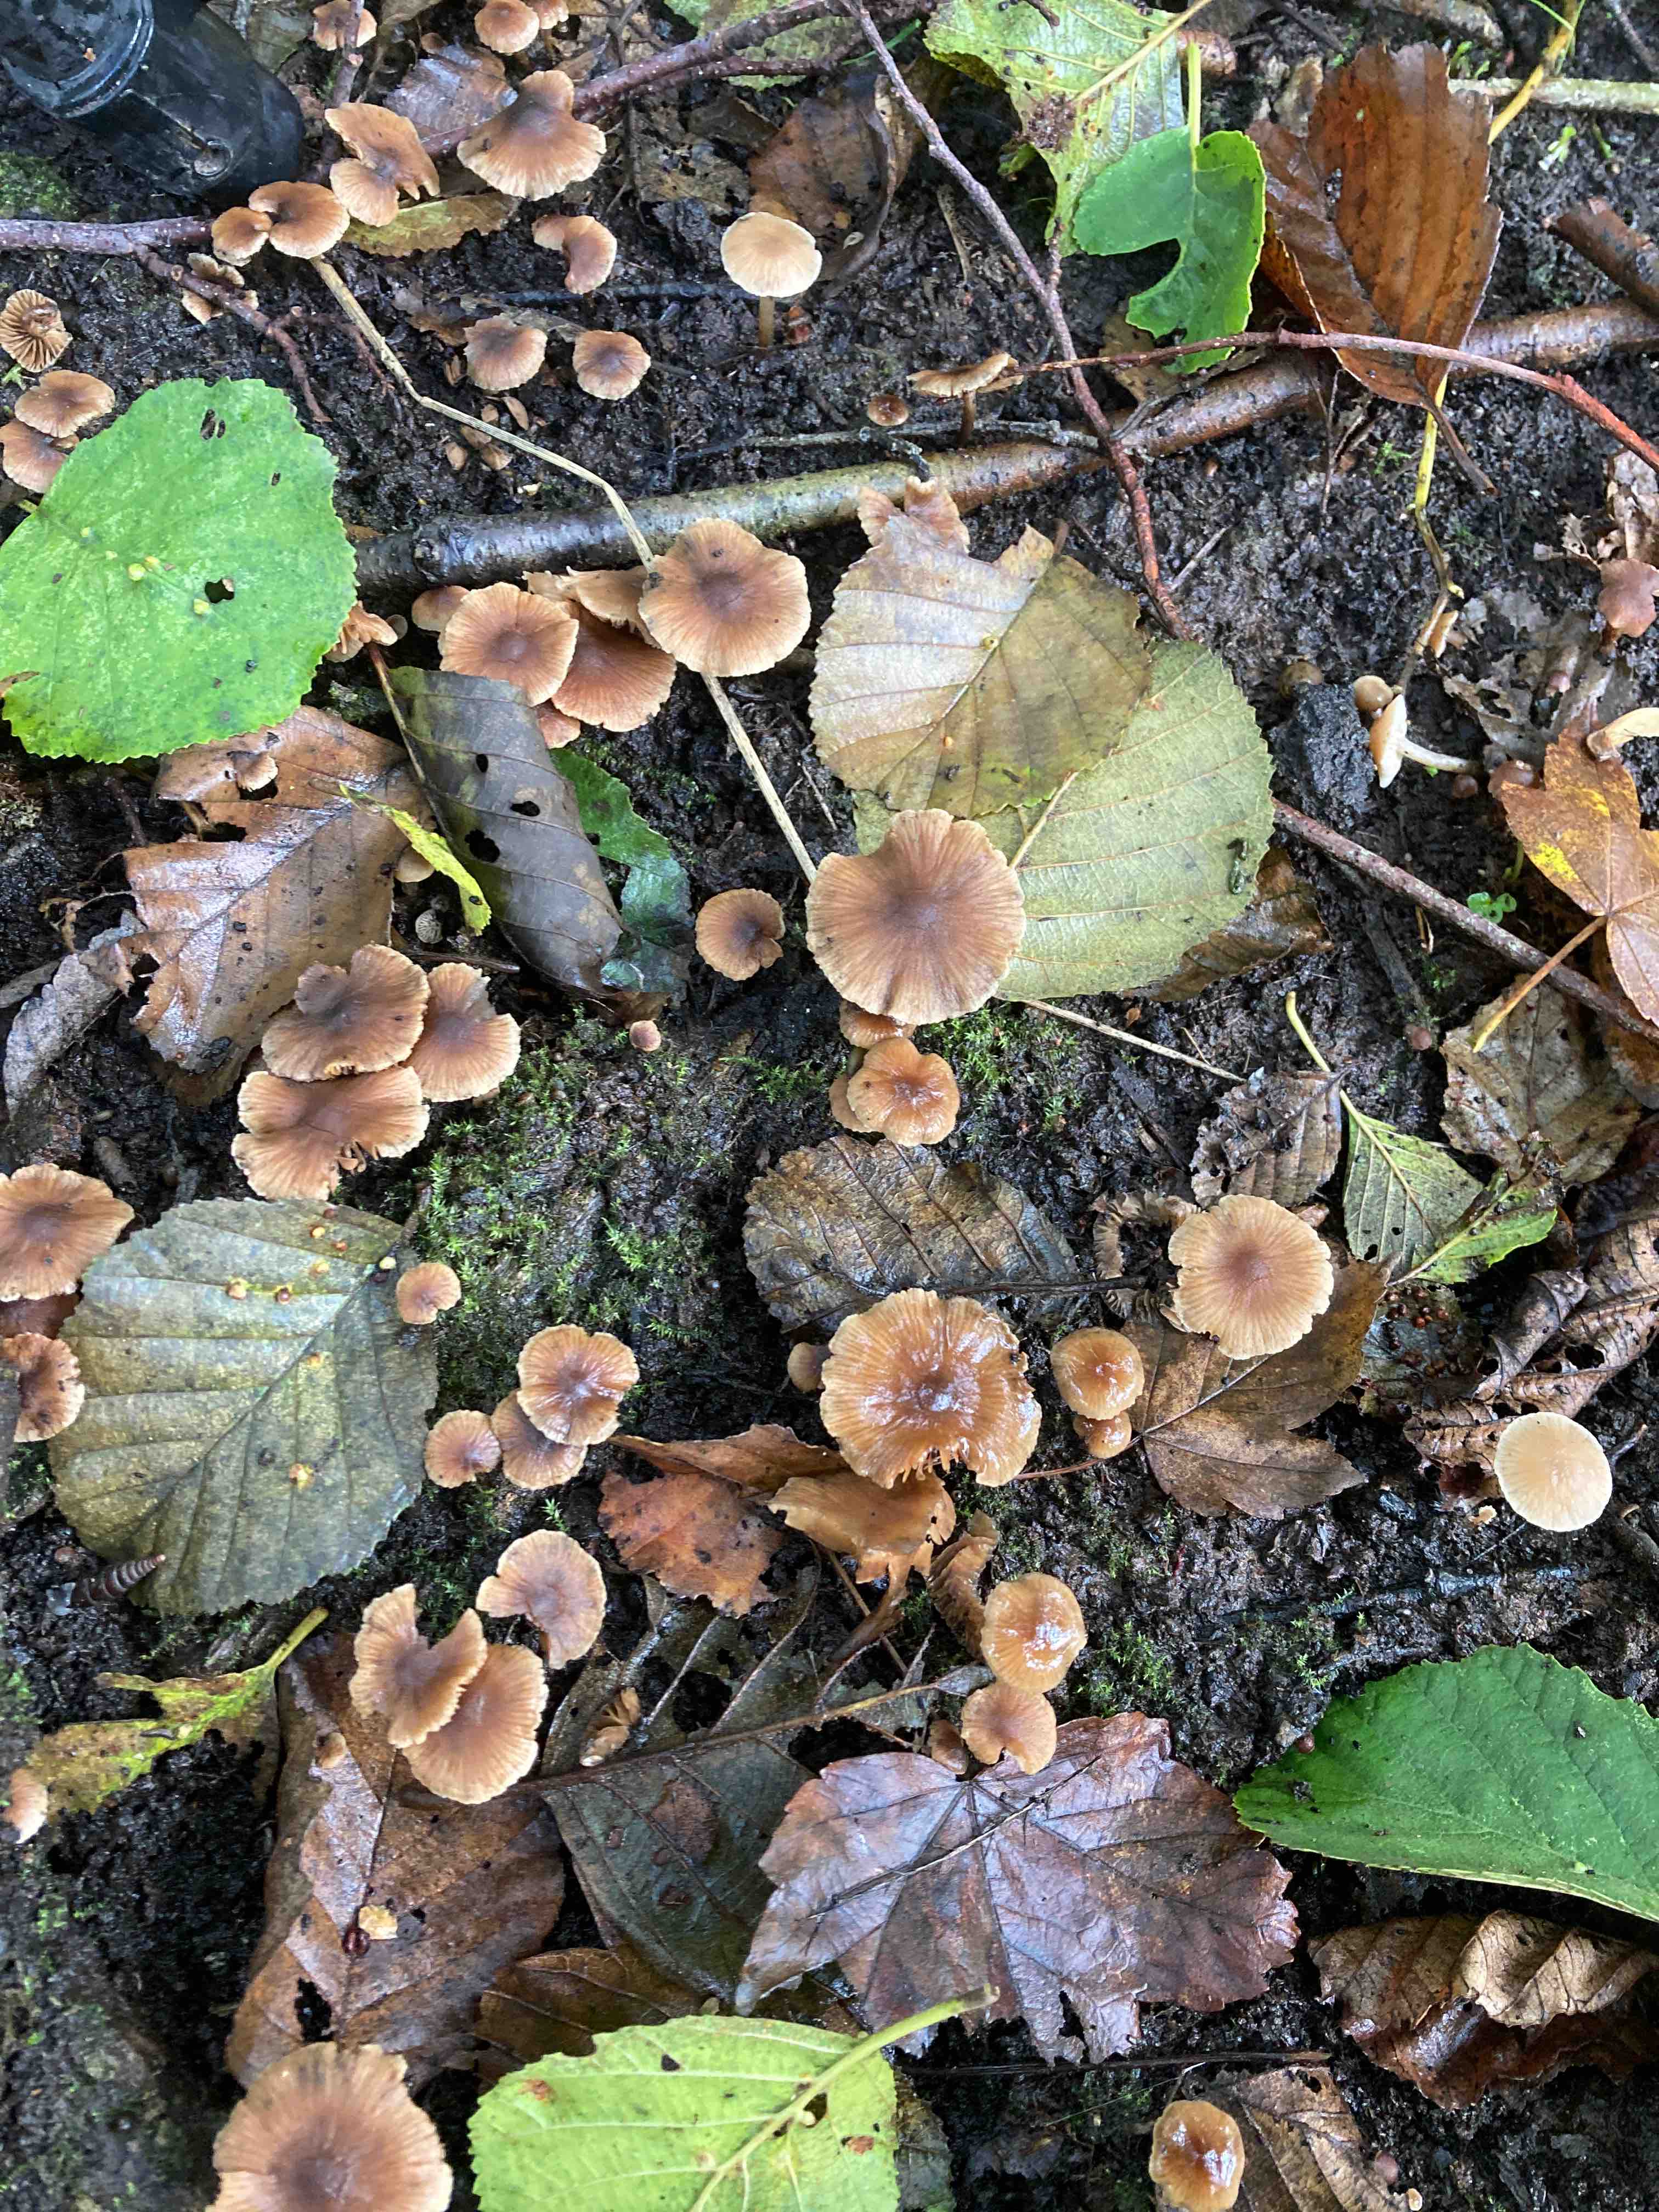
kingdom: Fungi
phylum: Basidiomycota
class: Agaricomycetes
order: Agaricales
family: Hymenogastraceae
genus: Naucoria
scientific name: Naucoria scolecina
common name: mørk elle-knaphat
